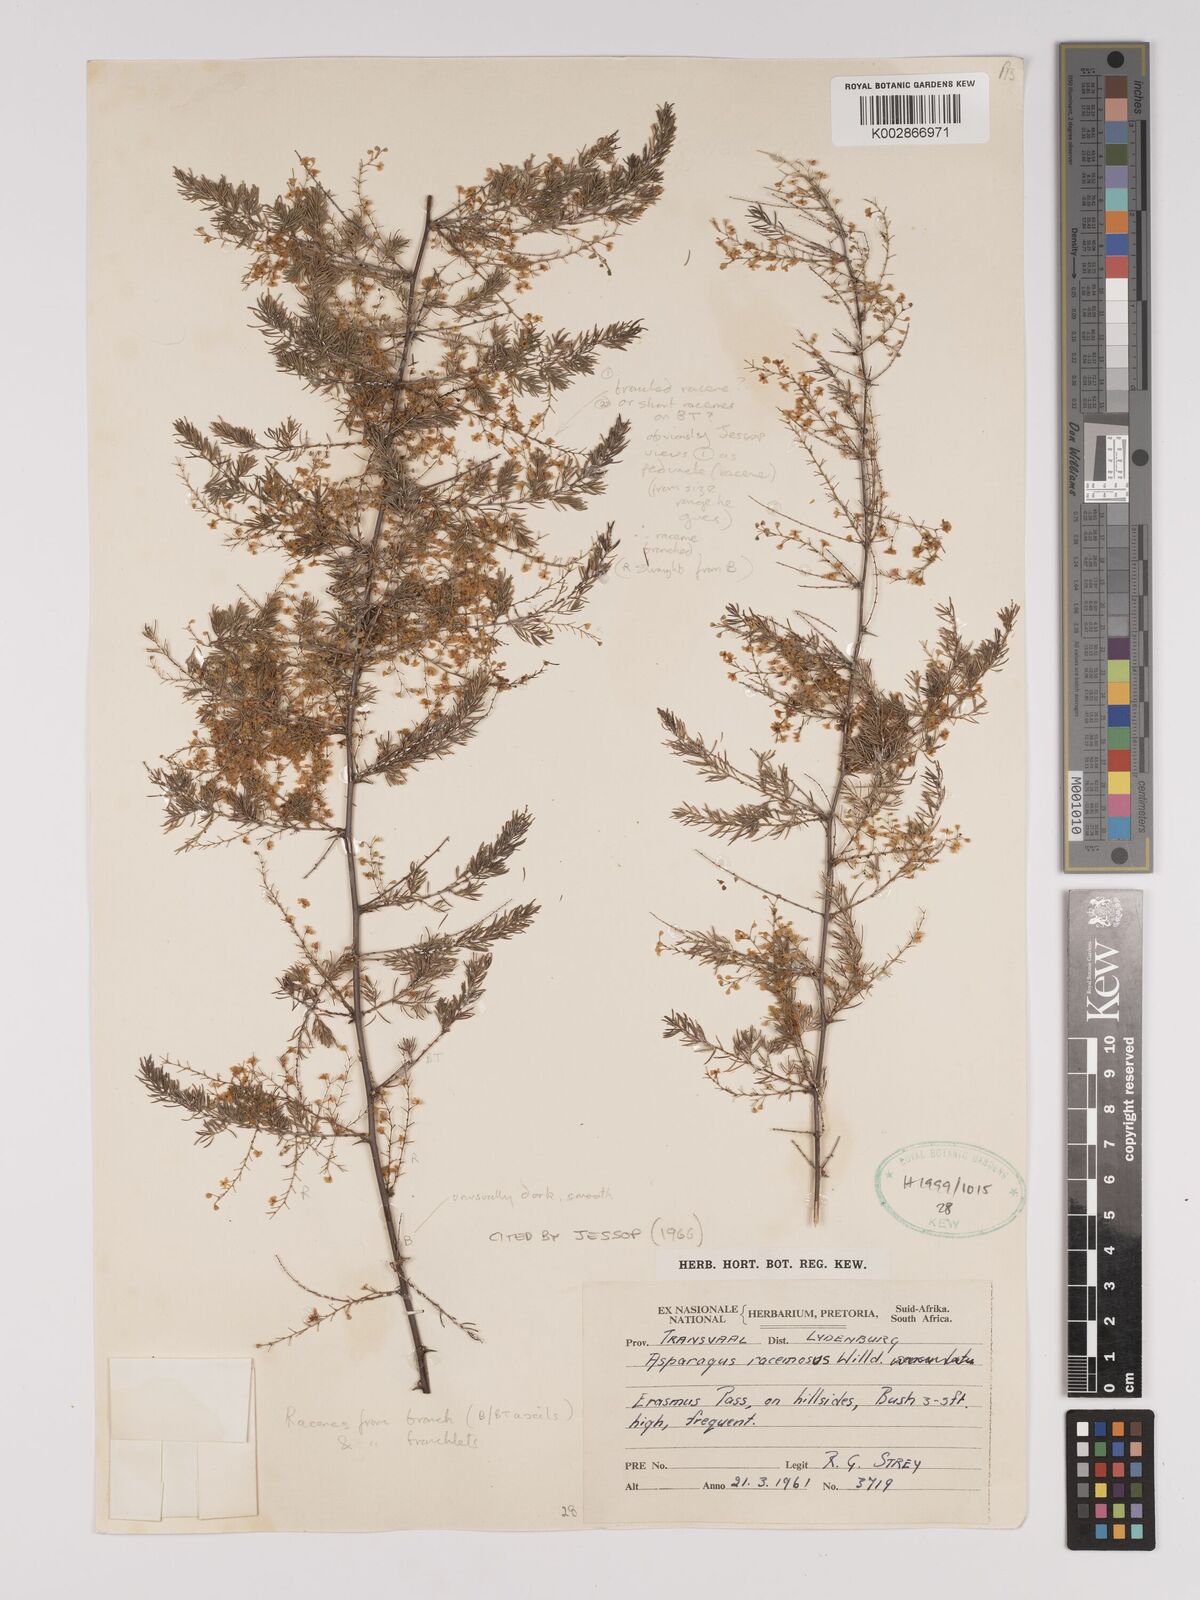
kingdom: Plantae
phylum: Tracheophyta
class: Liliopsida
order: Asparagales
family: Asparagaceae
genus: Asparagus
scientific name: Asparagus racemosus
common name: Asparagus-fern
